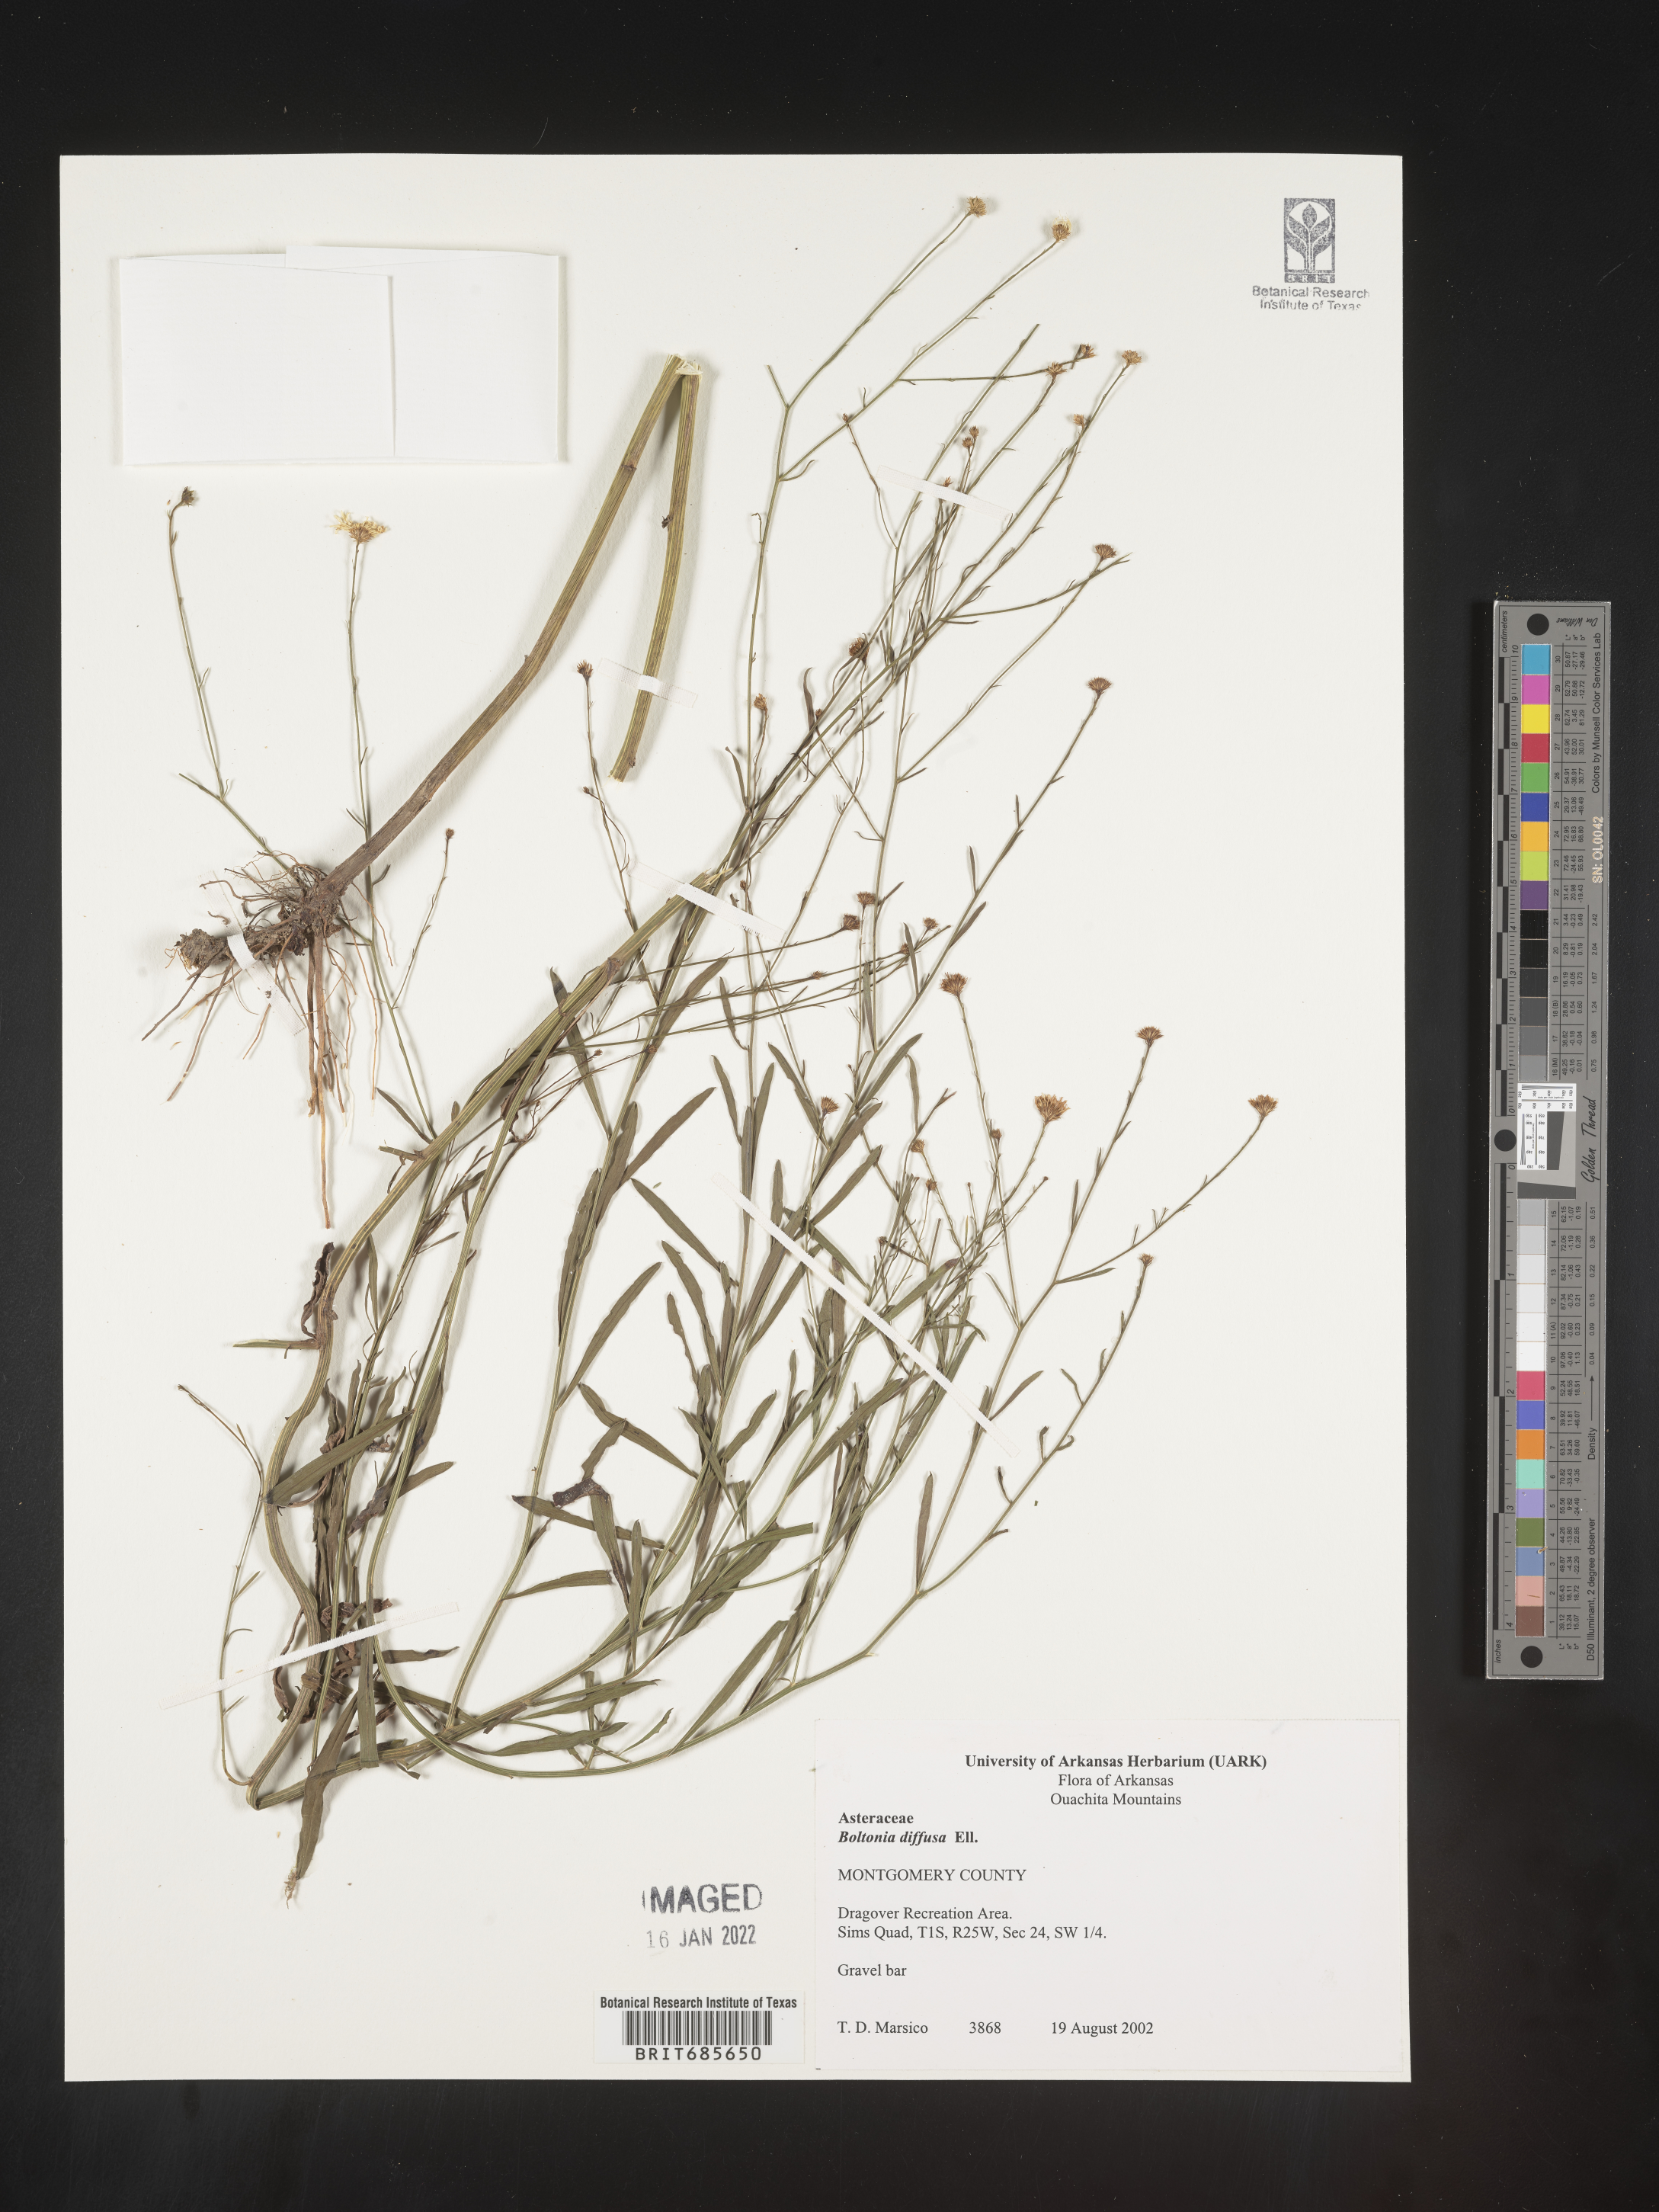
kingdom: Plantae
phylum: Tracheophyta
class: Magnoliopsida
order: Asterales
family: Asteraceae
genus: Boltonia
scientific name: Boltonia diffusa
